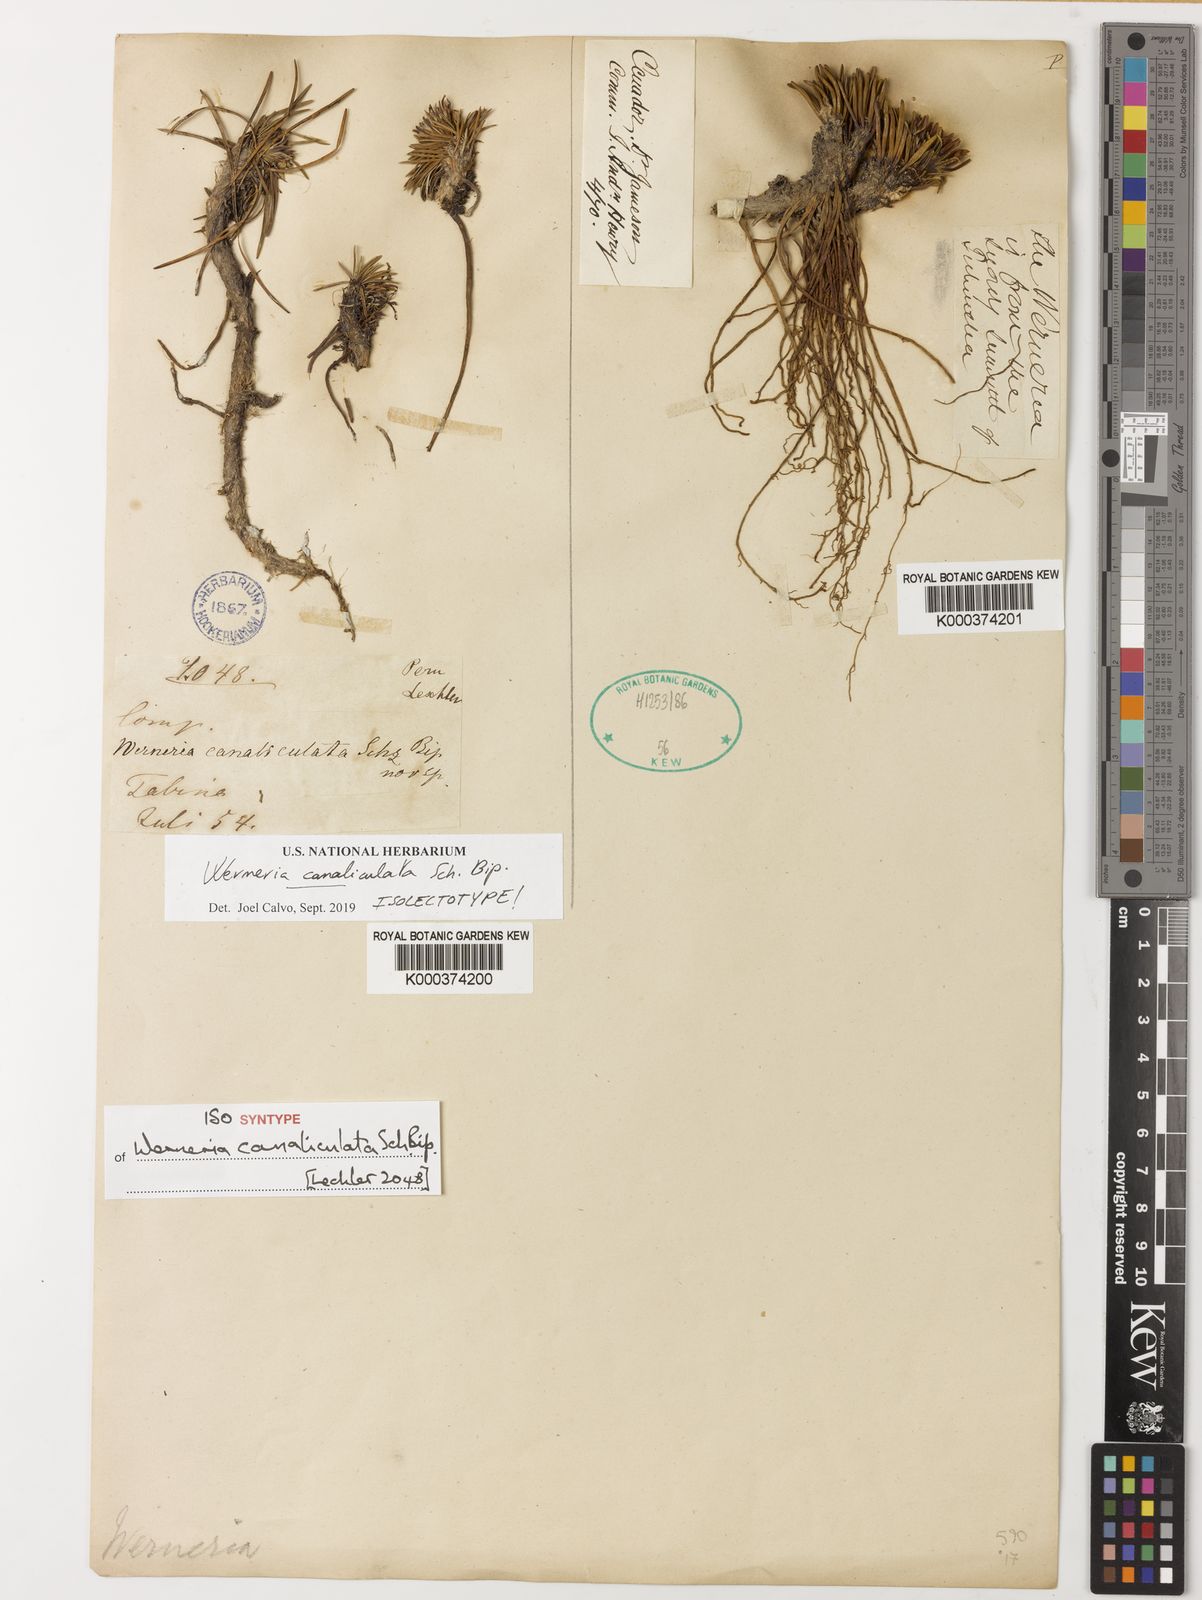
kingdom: Plantae
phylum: Tracheophyta
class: Magnoliopsida
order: Asterales
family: Asteraceae
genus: Rockhausenia
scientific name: Rockhausenia canaliculata
